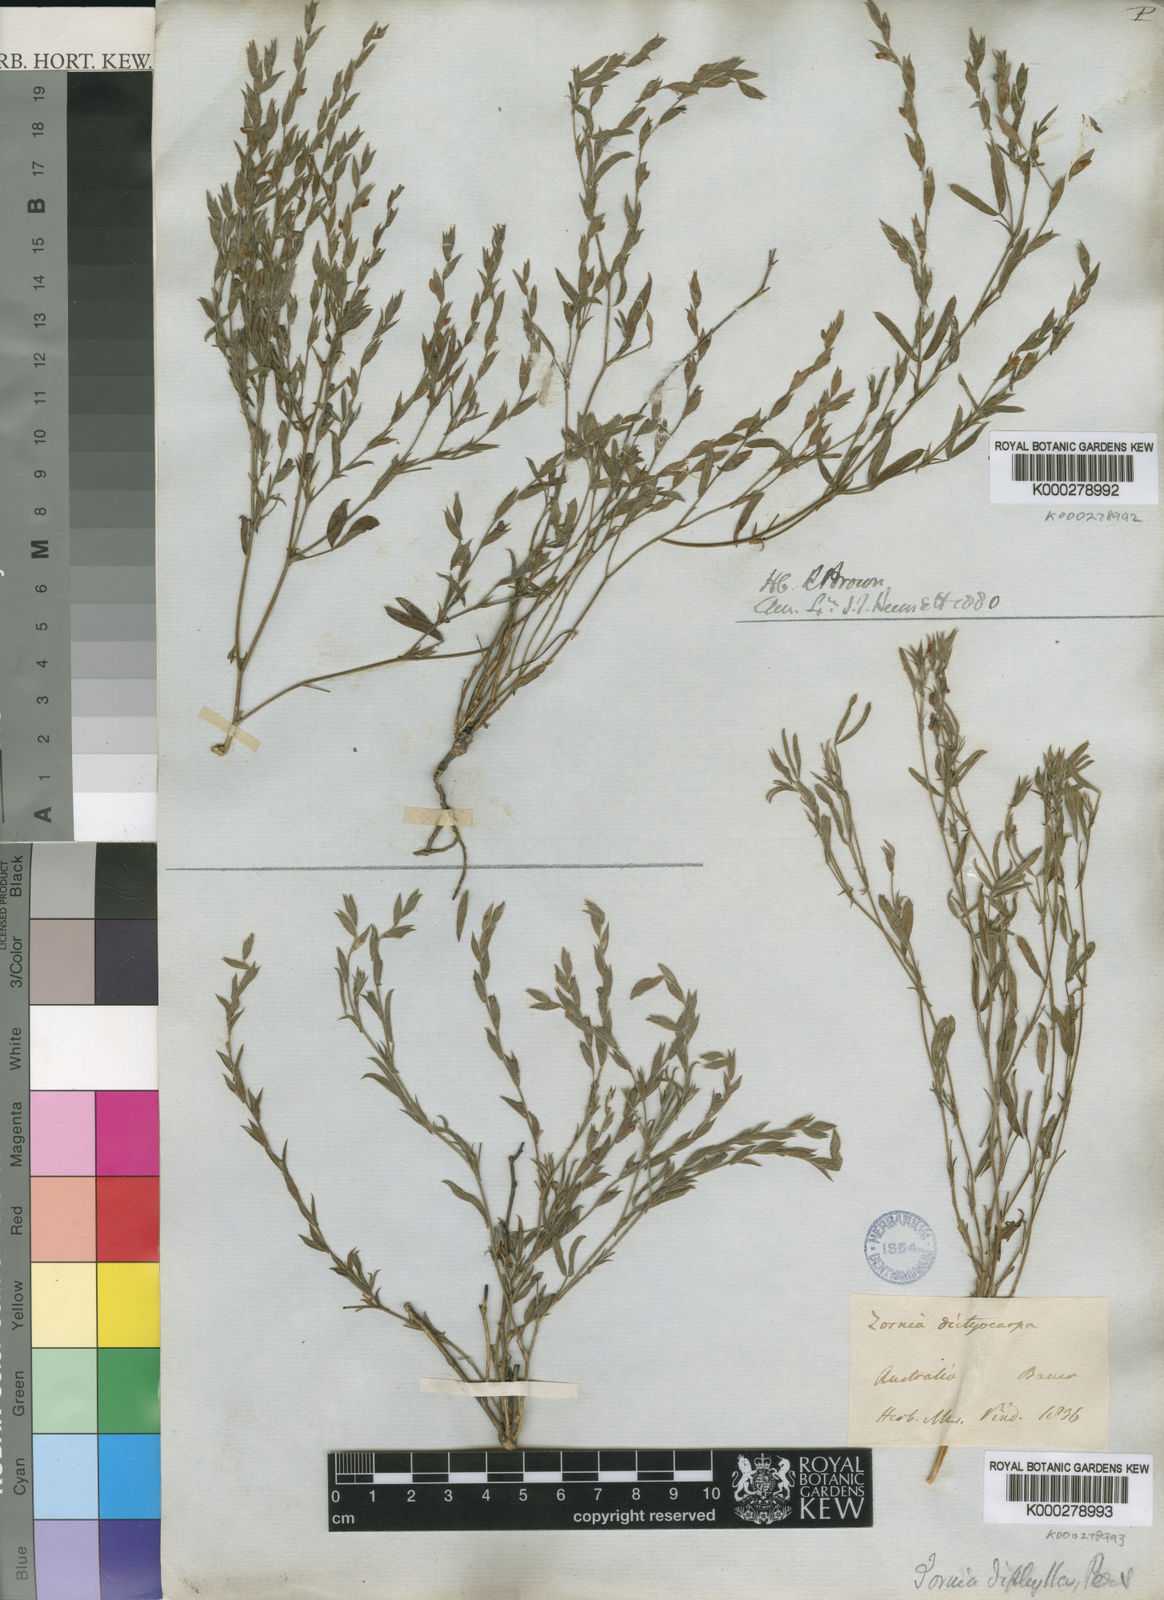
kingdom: Plantae
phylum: Tracheophyta
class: Magnoliopsida
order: Fabales
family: Fabaceae
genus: Zornia
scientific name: Zornia diphylla
